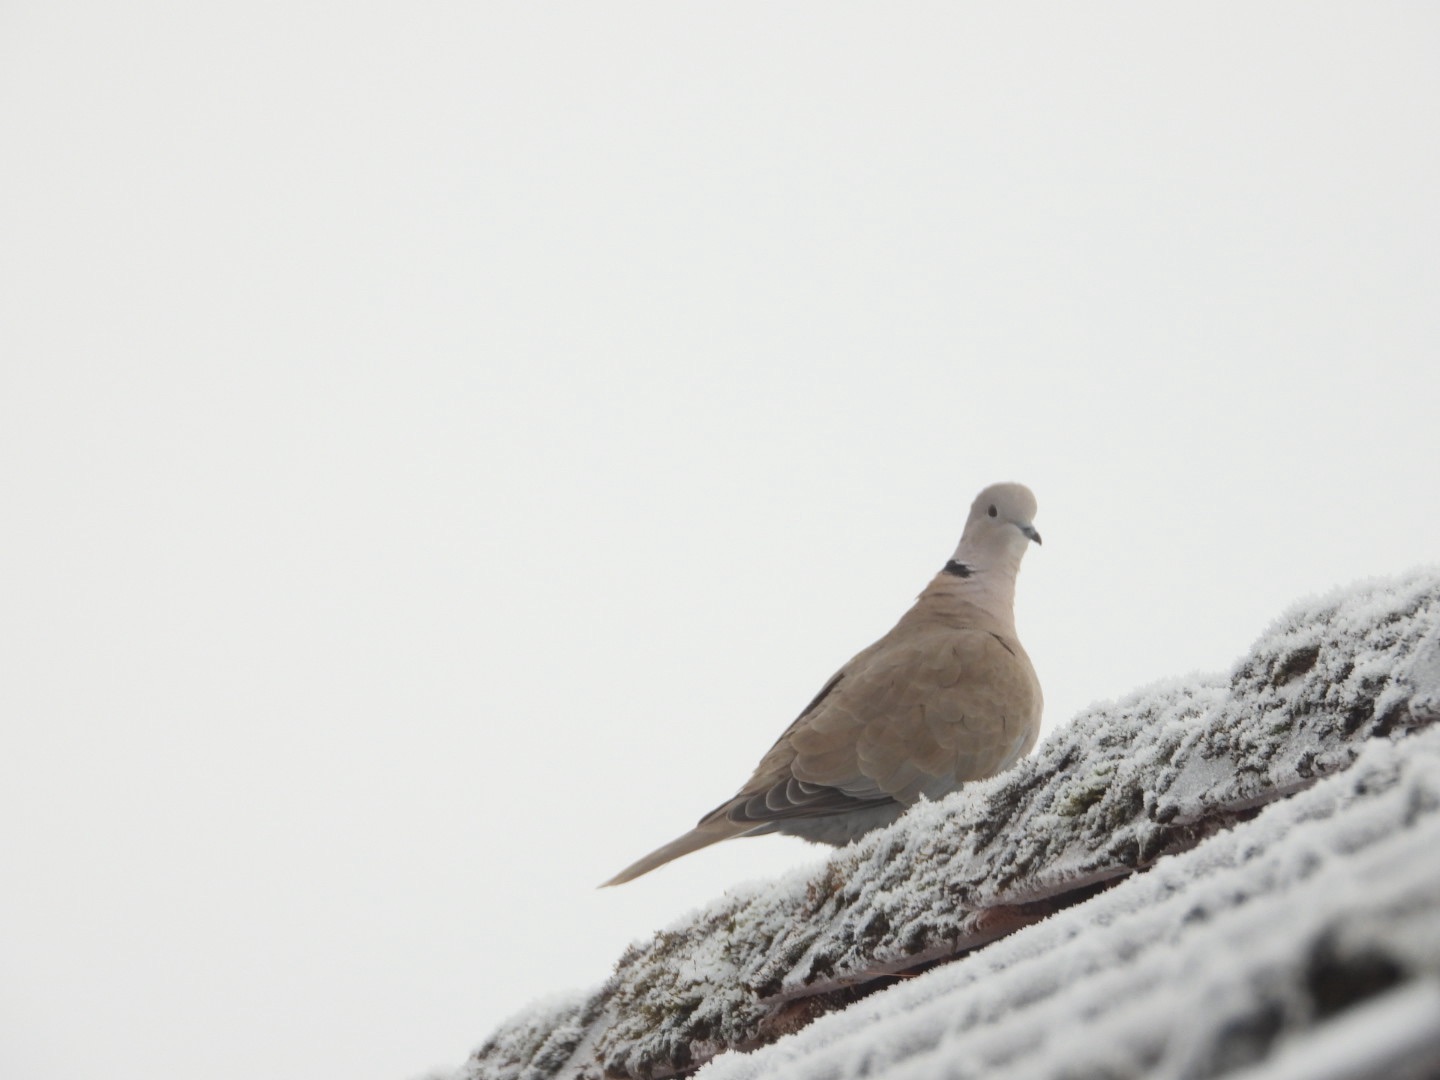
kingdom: Animalia
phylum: Chordata
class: Aves
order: Columbiformes
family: Columbidae
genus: Streptopelia
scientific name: Streptopelia decaocto
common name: Tyrkerdue
